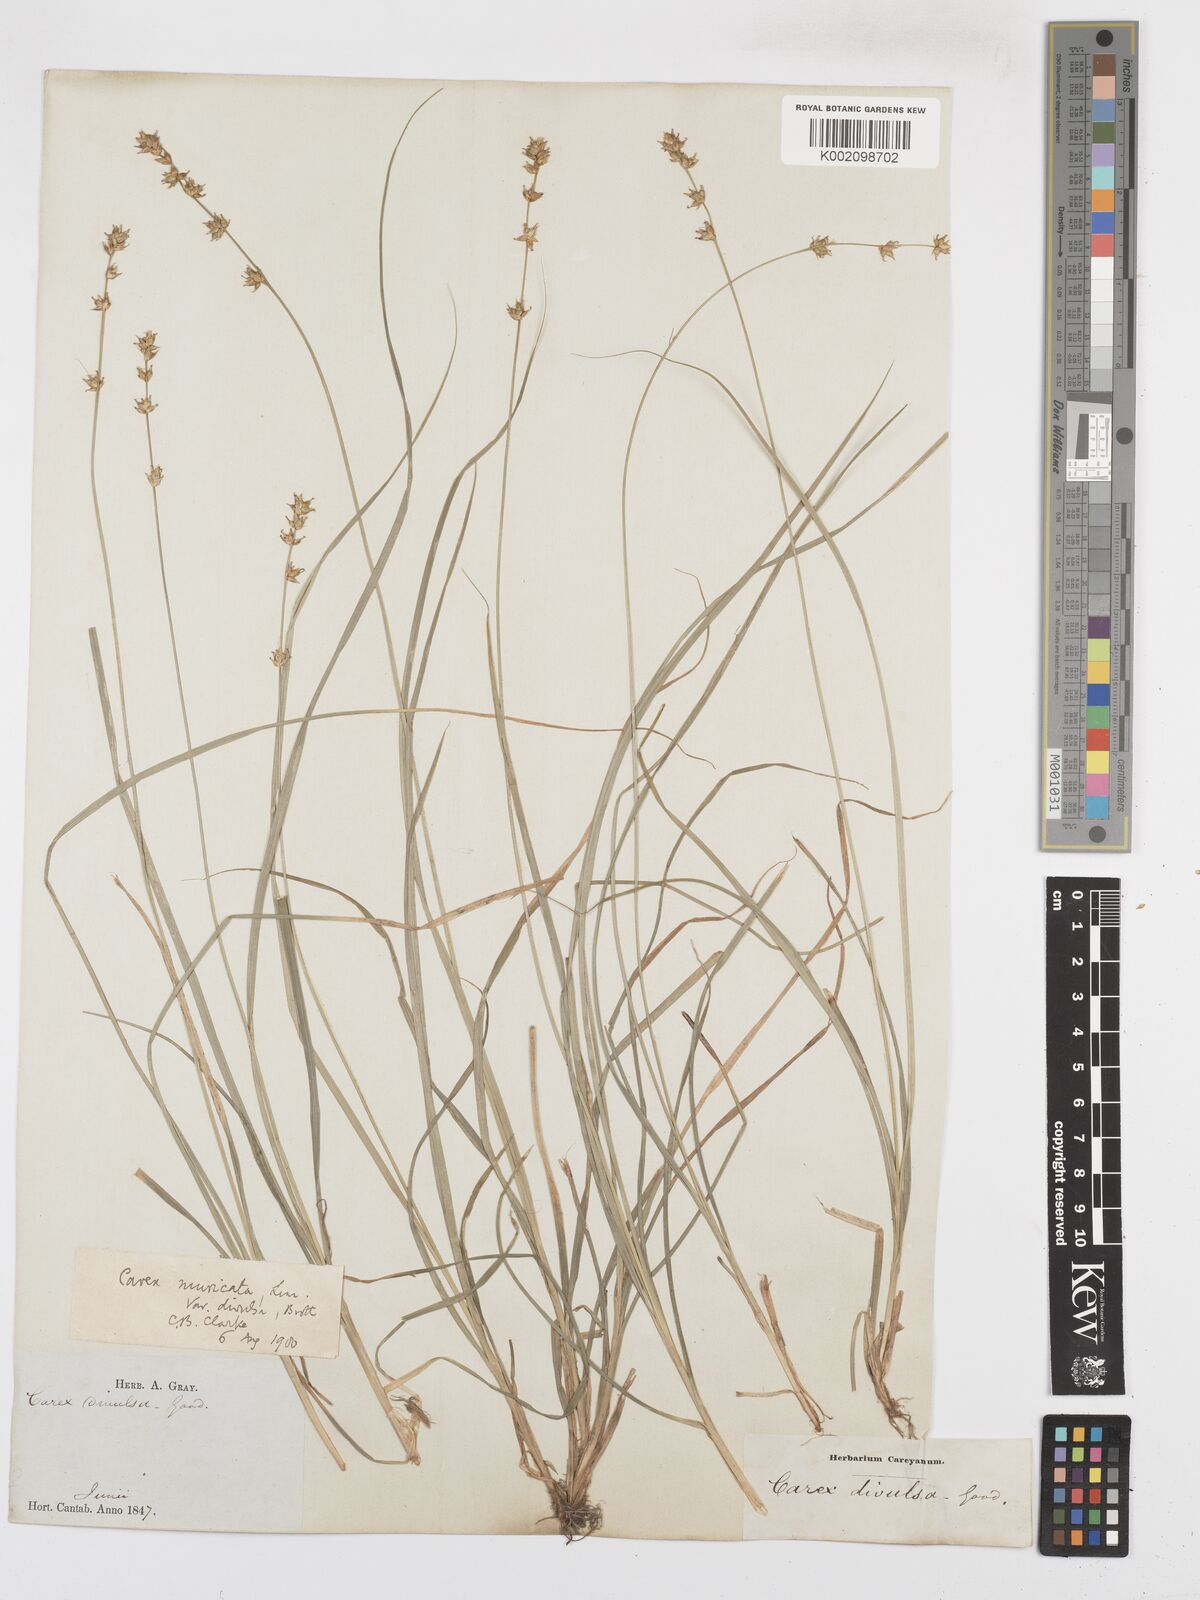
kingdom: Plantae
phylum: Tracheophyta
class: Liliopsida
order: Poales
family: Cyperaceae
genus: Carex
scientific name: Carex muricata
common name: Rough sedge
